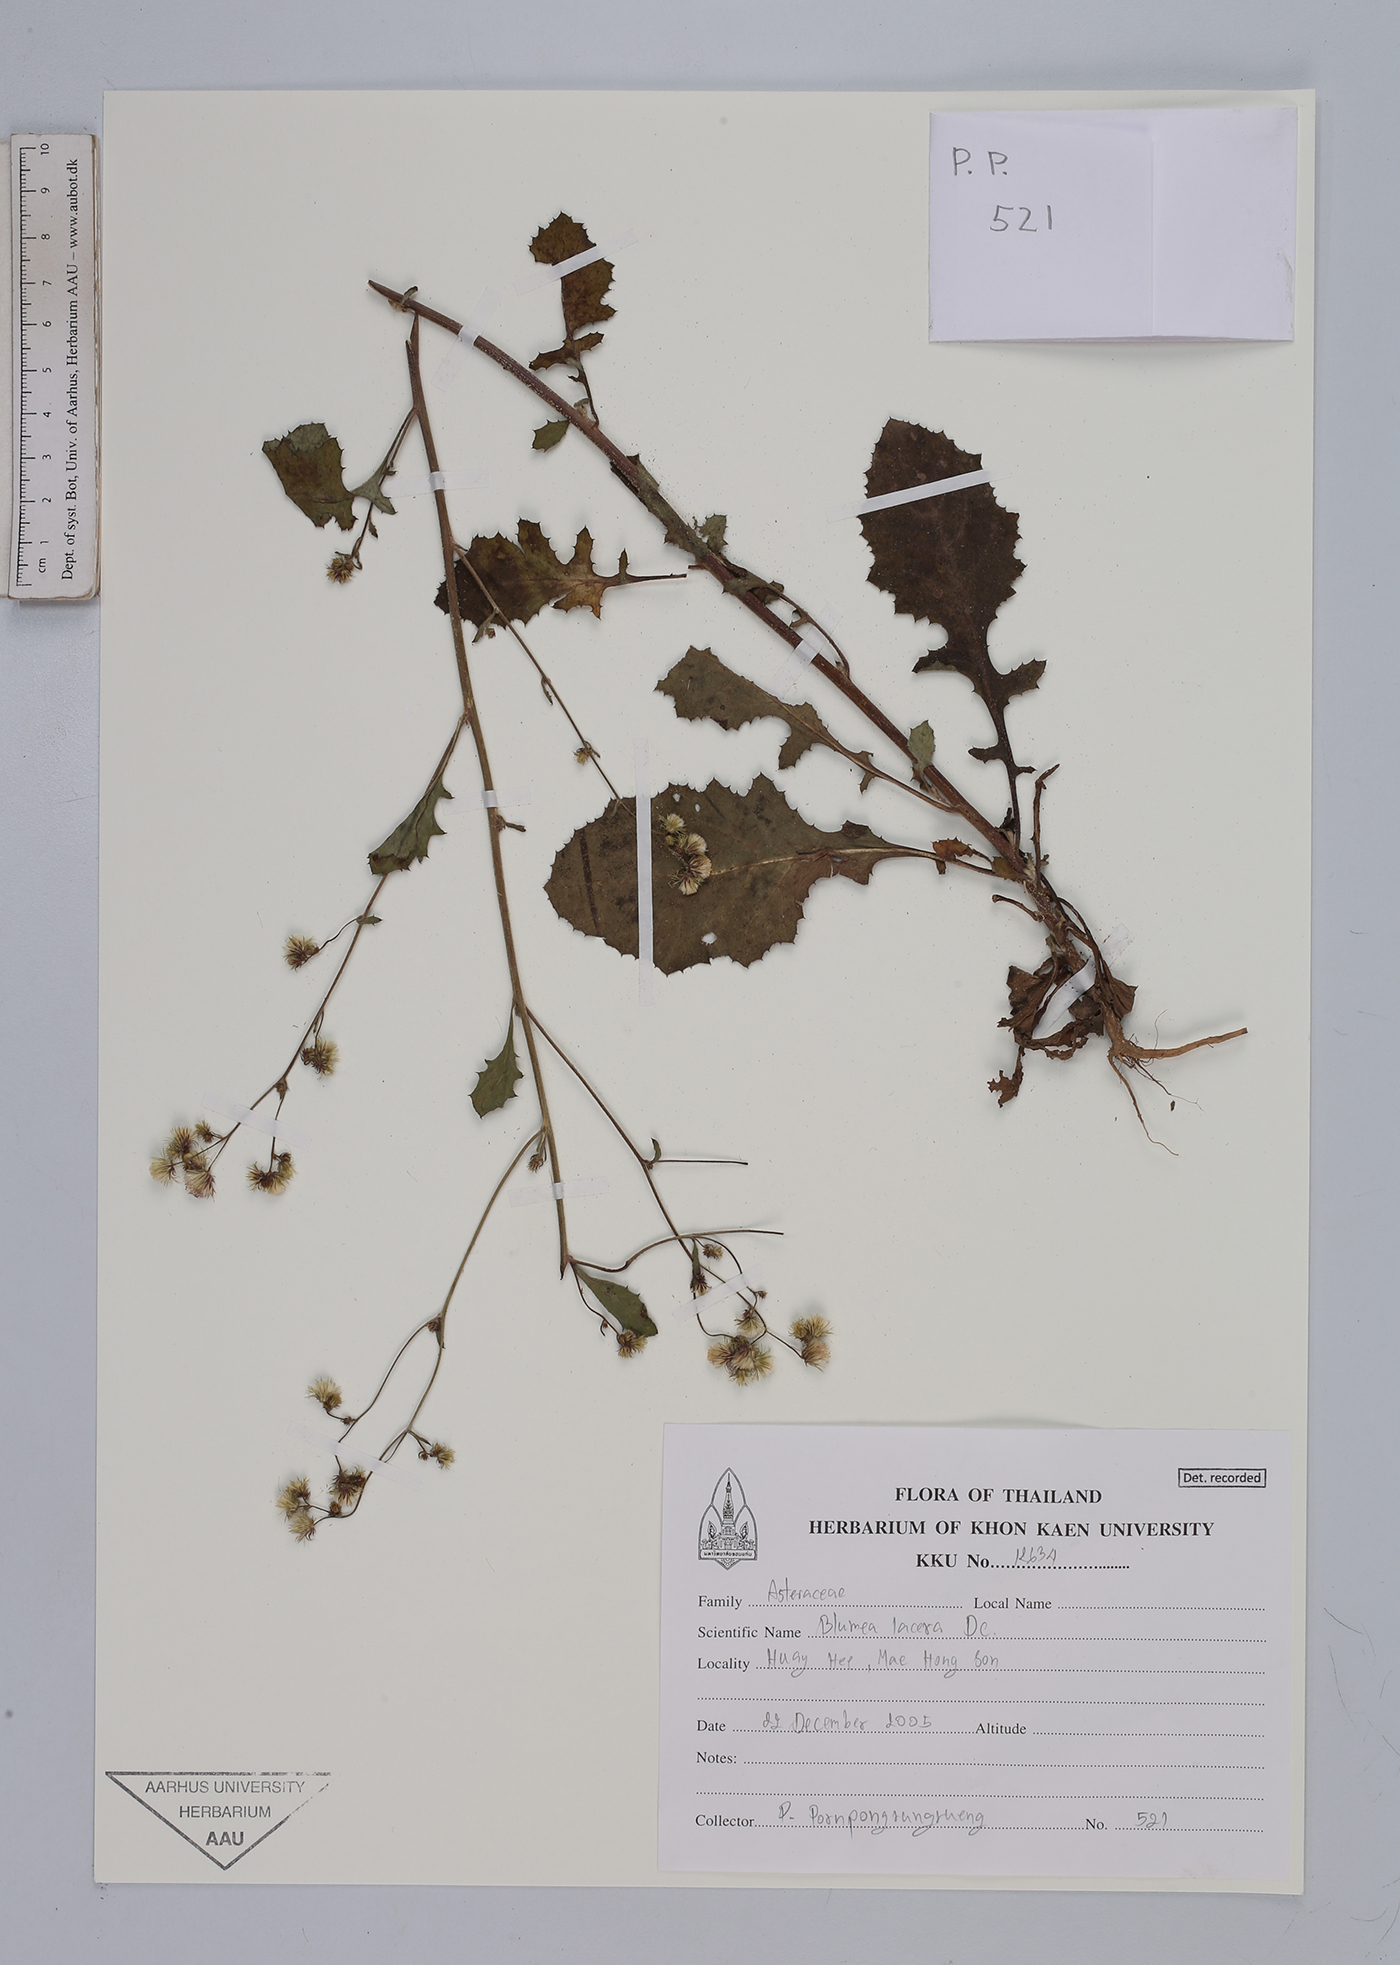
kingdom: Plantae
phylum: Tracheophyta
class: Magnoliopsida
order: Asterales
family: Asteraceae
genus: Blumea
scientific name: Blumea lacera
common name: Malay blumea
